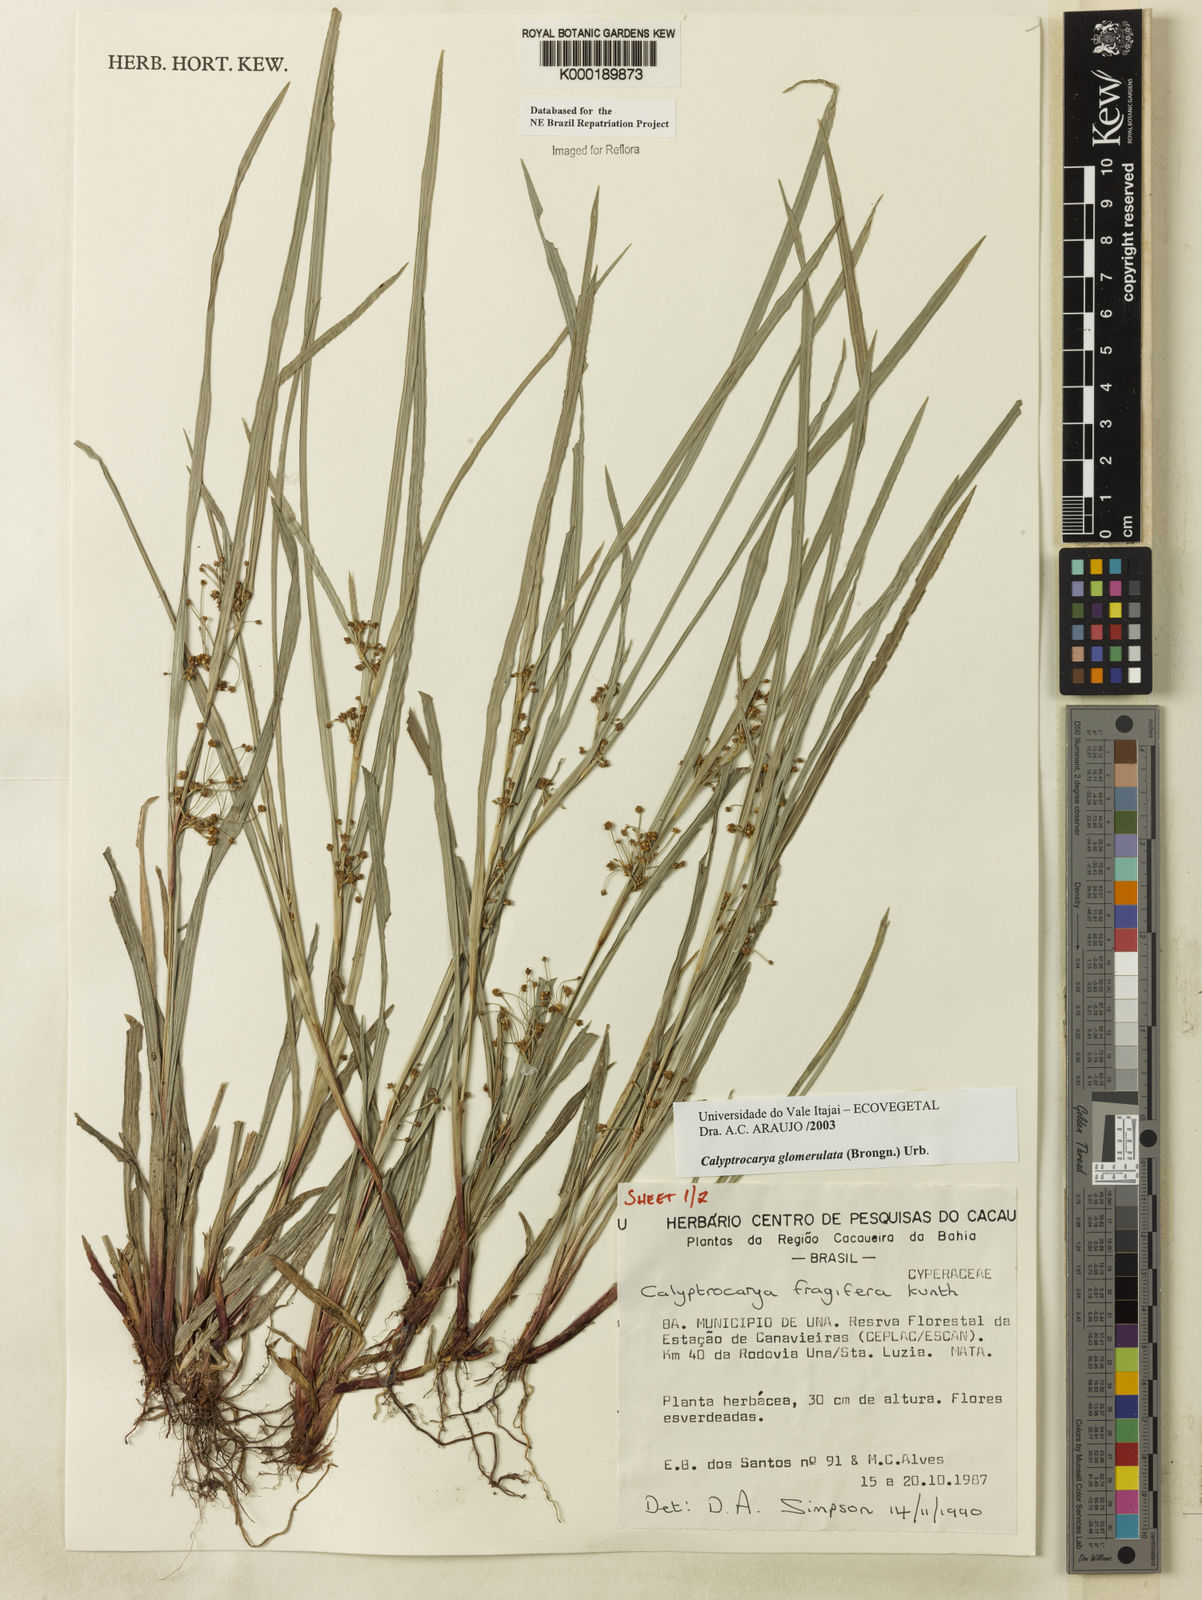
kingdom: Plantae
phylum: Tracheophyta
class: Liliopsida
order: Poales
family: Cyperaceae
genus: Calyptrocarya
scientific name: Calyptrocarya glomerulata
